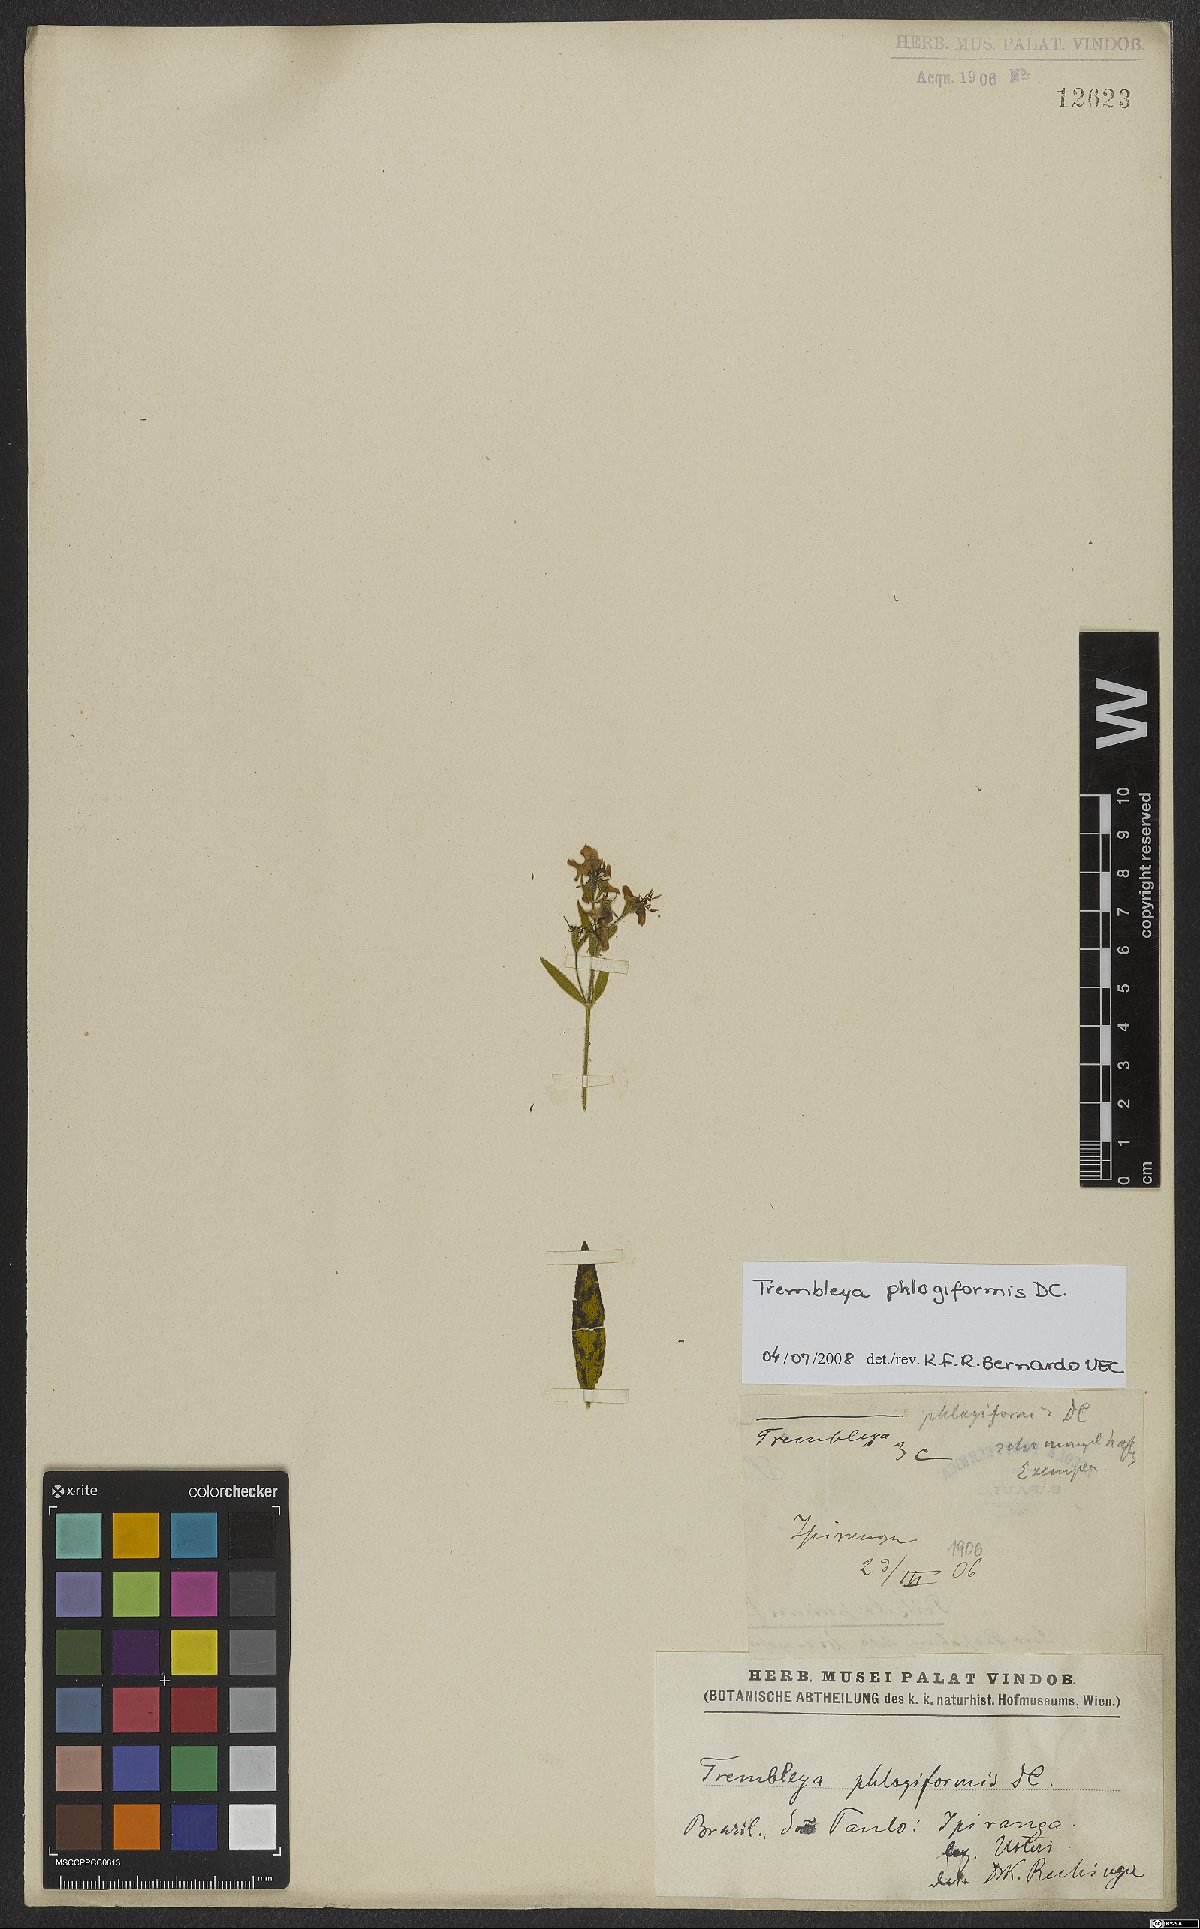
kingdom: Plantae
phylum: Tracheophyta
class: Magnoliopsida
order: Myrtales
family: Melastomataceae
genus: Microlicia
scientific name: Microlicia phlogiformis
